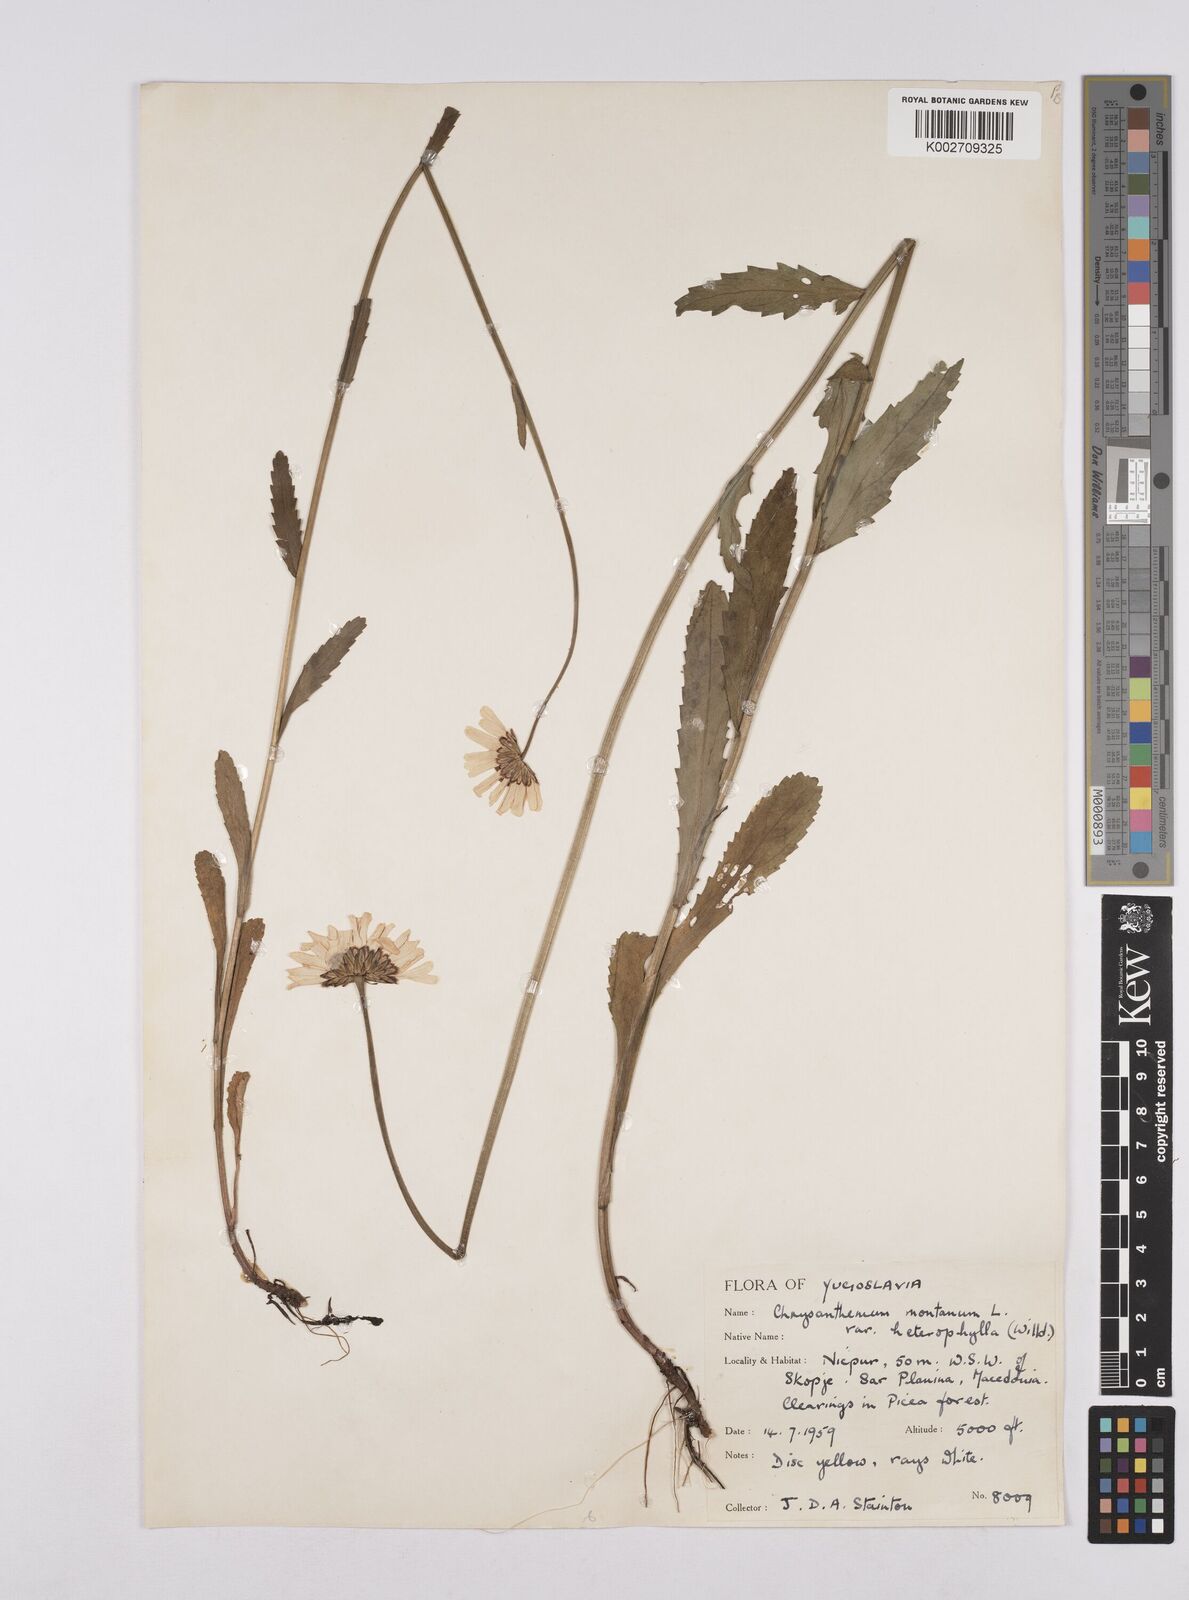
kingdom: Plantae
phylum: Tracheophyta
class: Magnoliopsida
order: Asterales
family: Asteraceae
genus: Leucanthemum
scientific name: Leucanthemum heterophyllum
